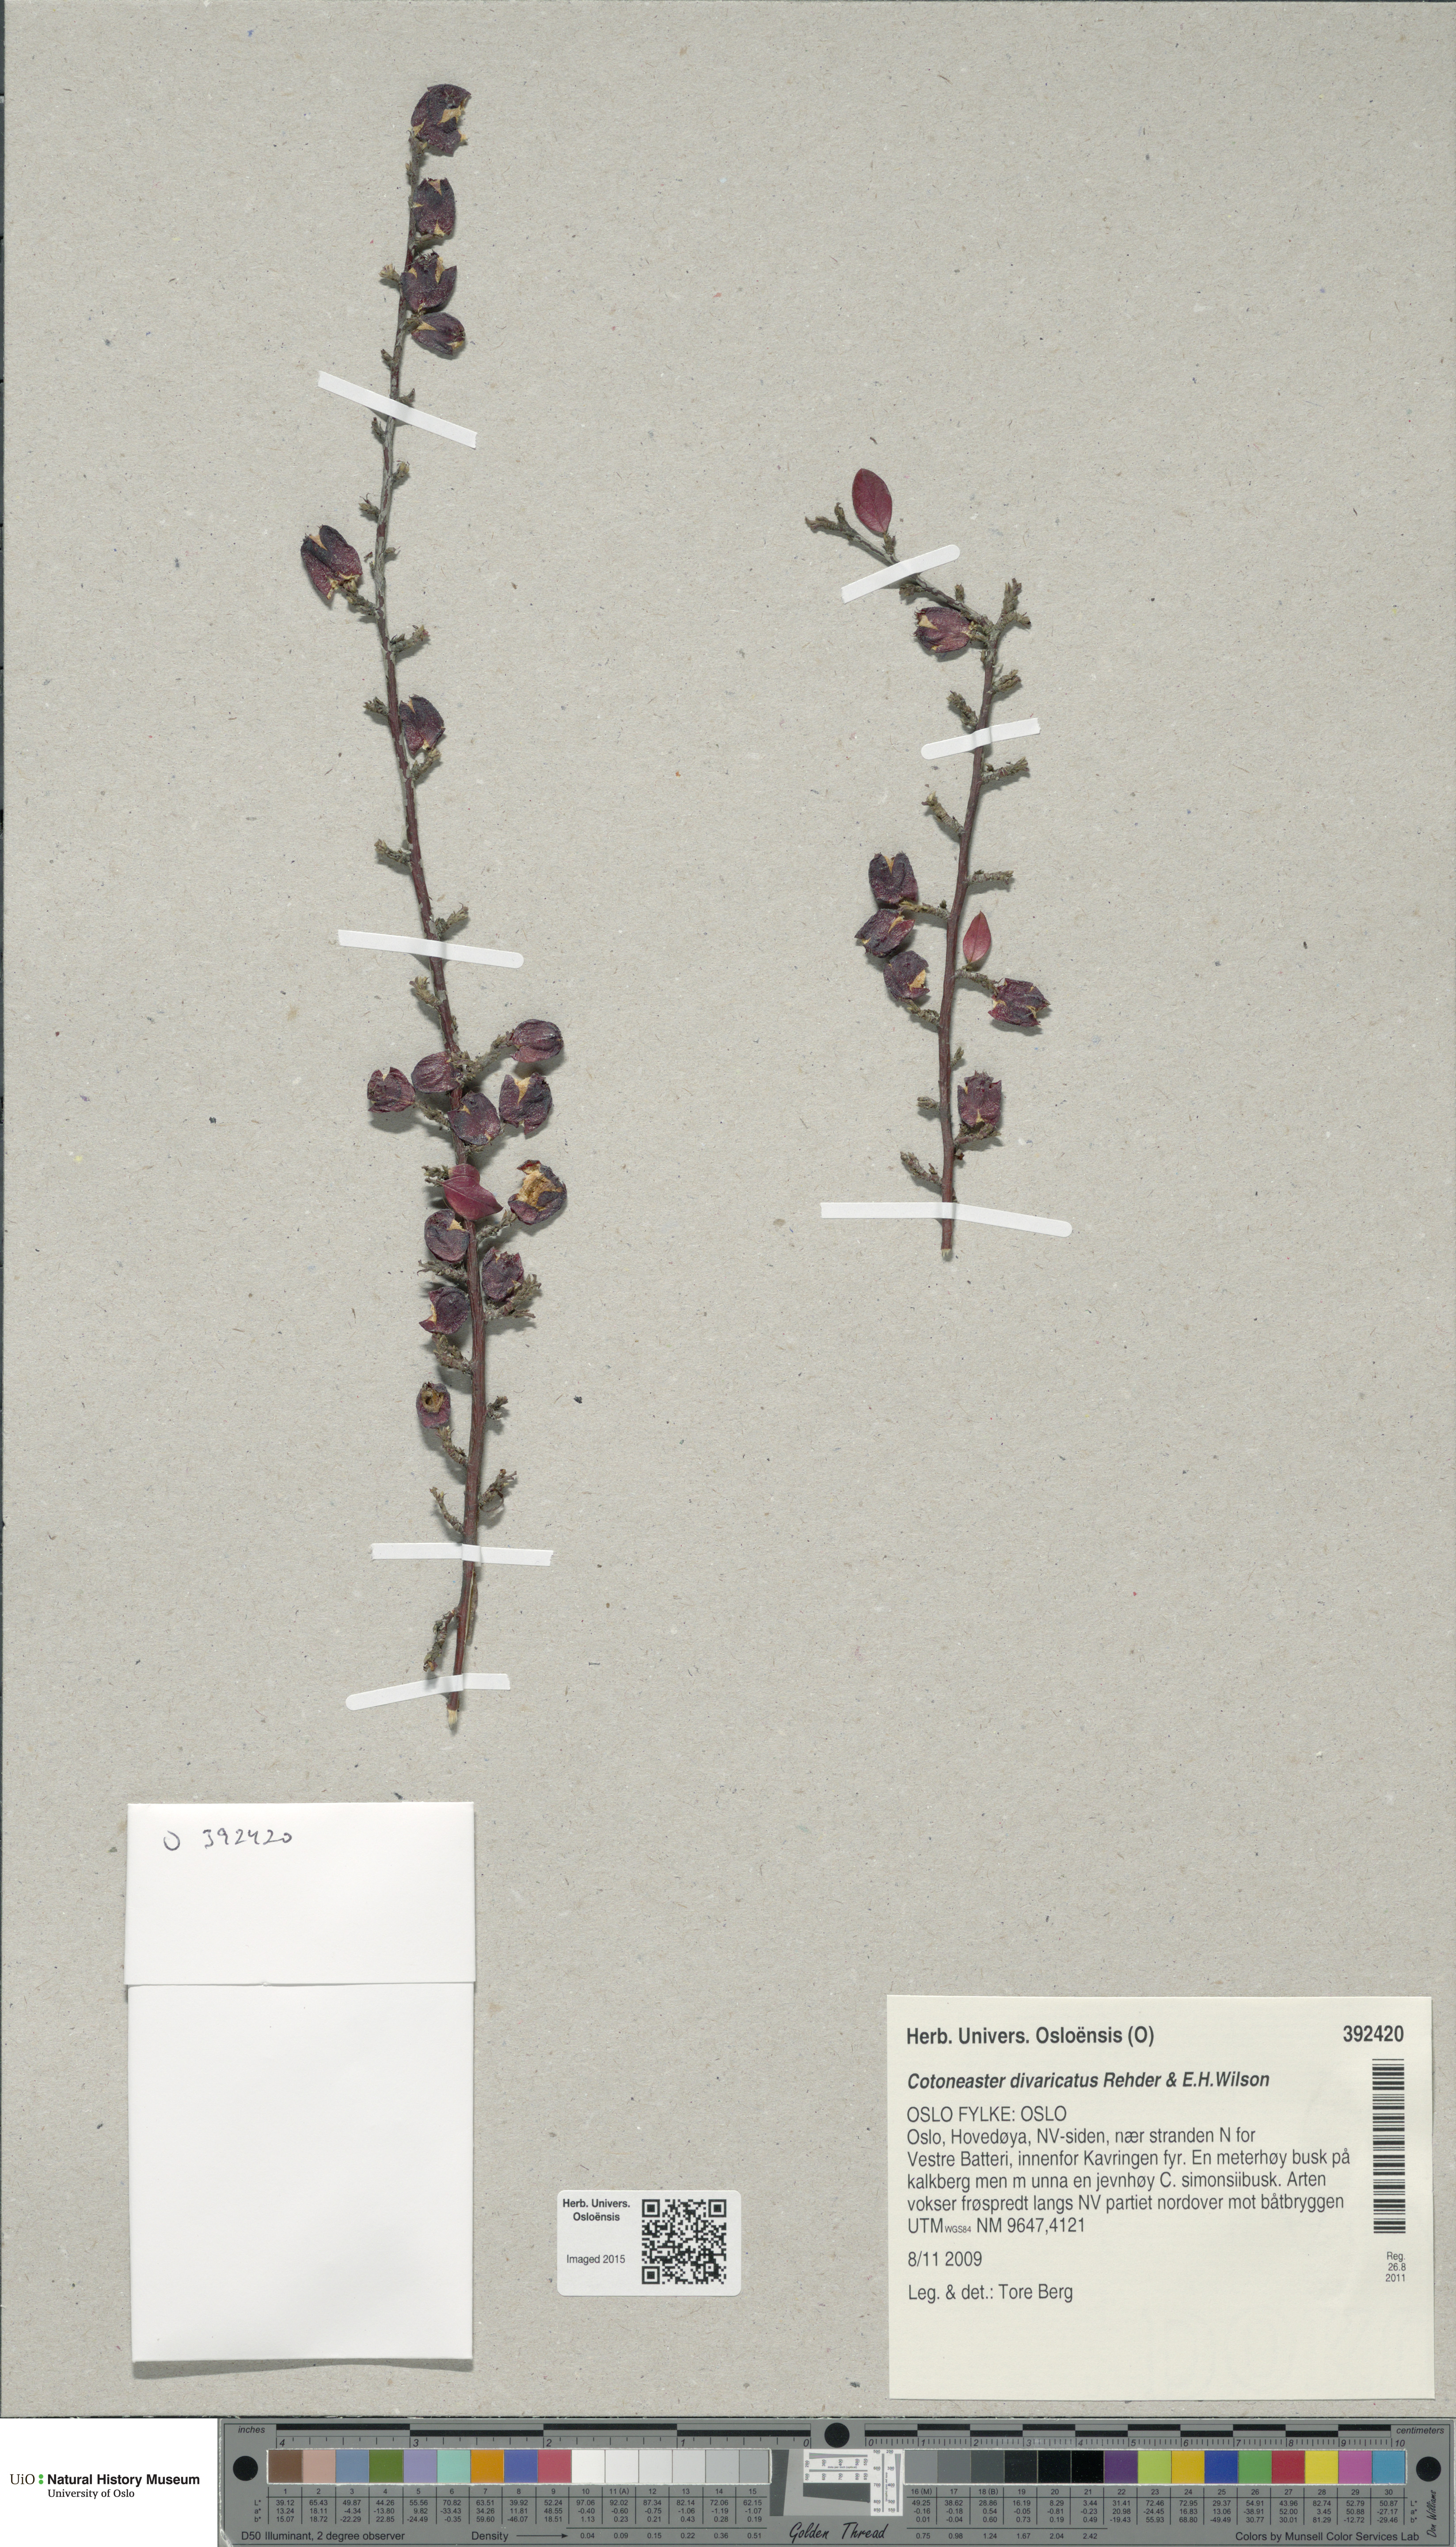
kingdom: Plantae
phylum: Tracheophyta
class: Magnoliopsida
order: Rosales
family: Rosaceae
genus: Cotoneaster
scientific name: Cotoneaster divaricatus
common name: Spreading cotoneaster
